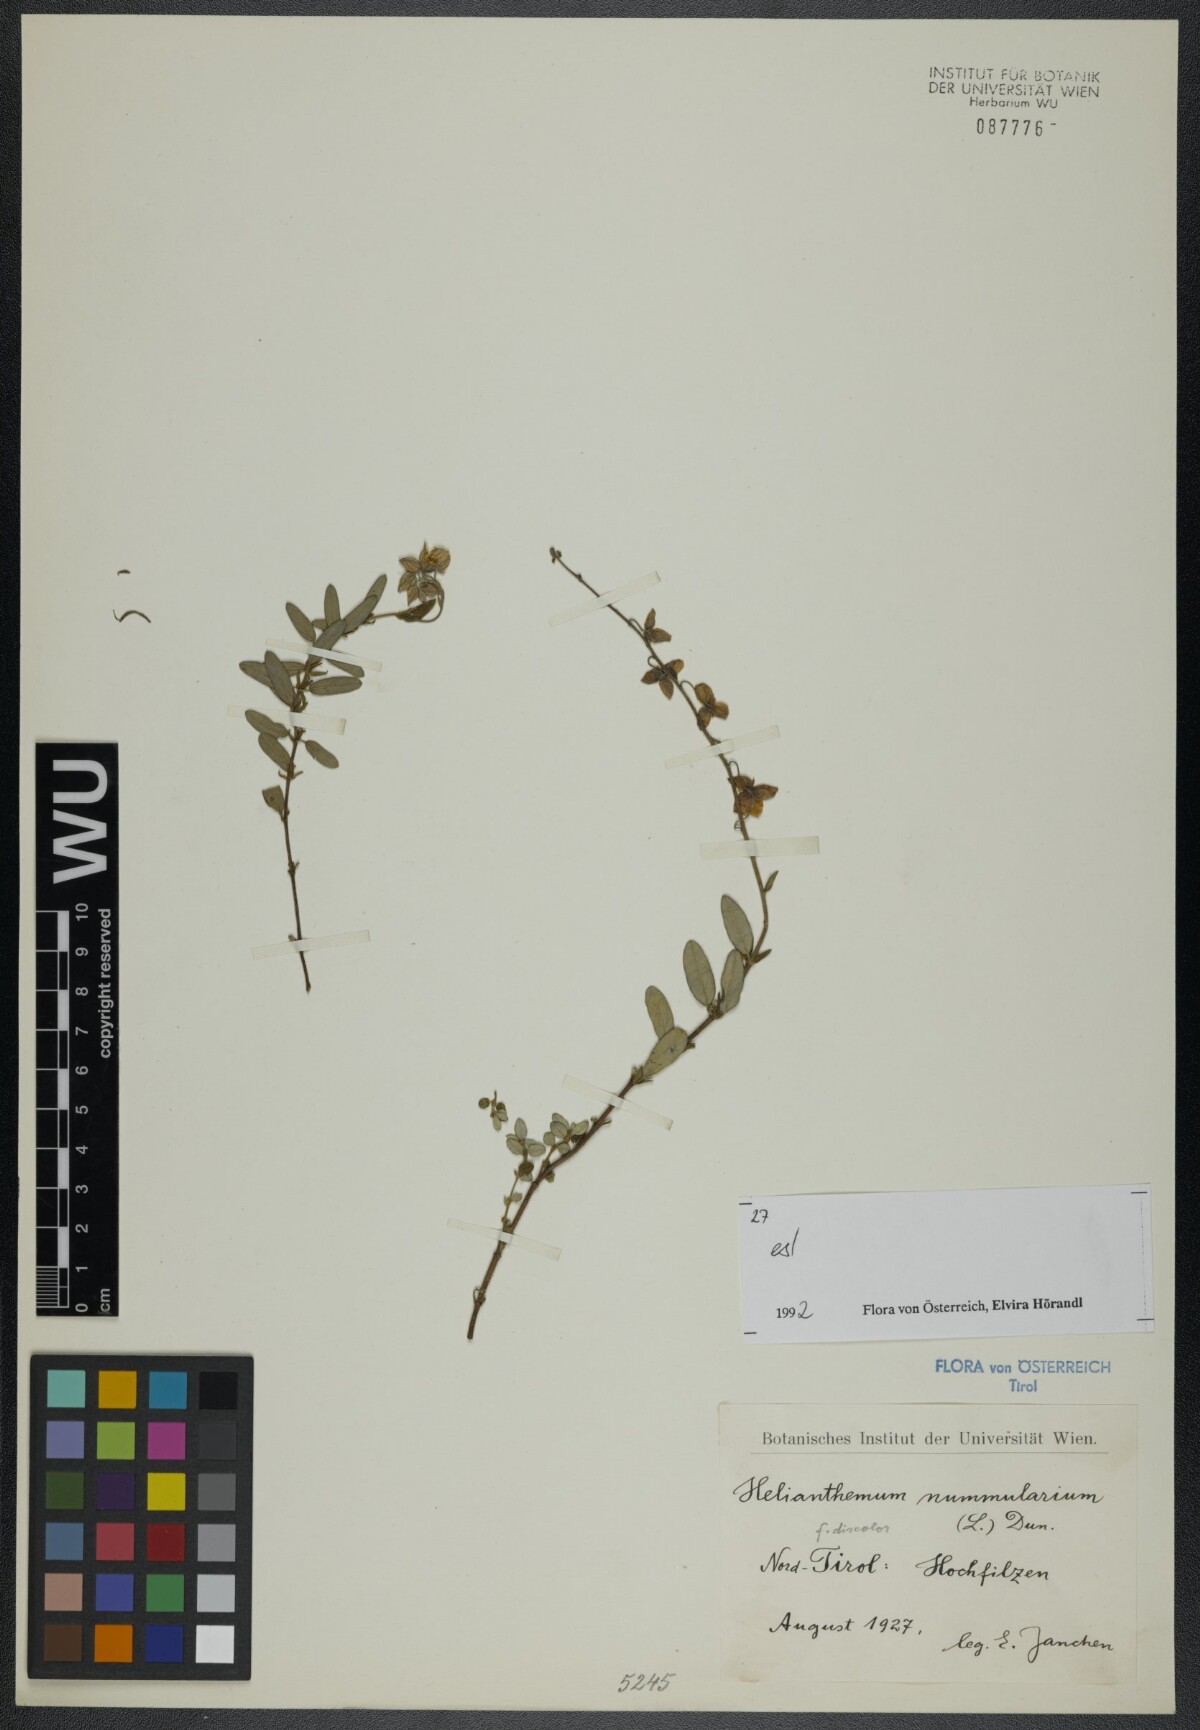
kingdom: Plantae
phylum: Tracheophyta
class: Magnoliopsida
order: Malvales
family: Cistaceae
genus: Helianthemum
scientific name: Helianthemum nummularium
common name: Common rock-rose
